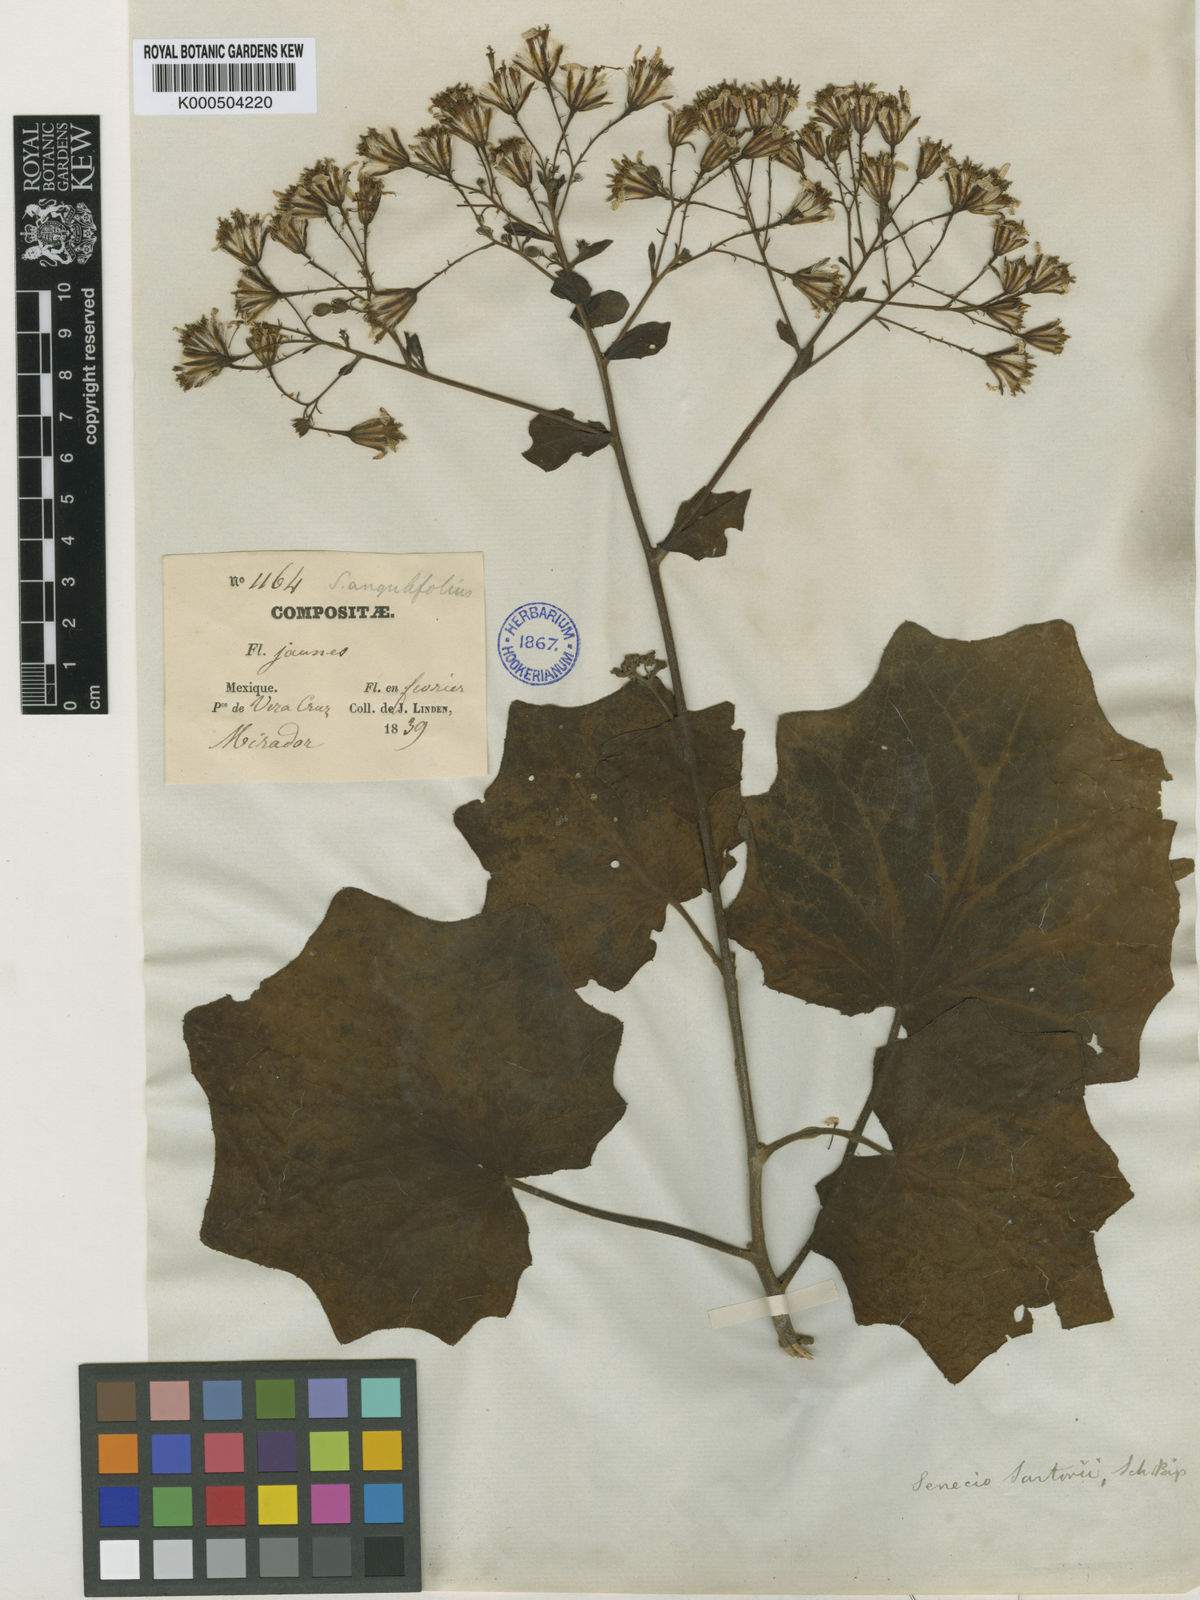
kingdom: Plantae
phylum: Tracheophyta
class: Magnoliopsida
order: Asterales
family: Asteraceae
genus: Roldana
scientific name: Roldana petasitis
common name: California-geranium
